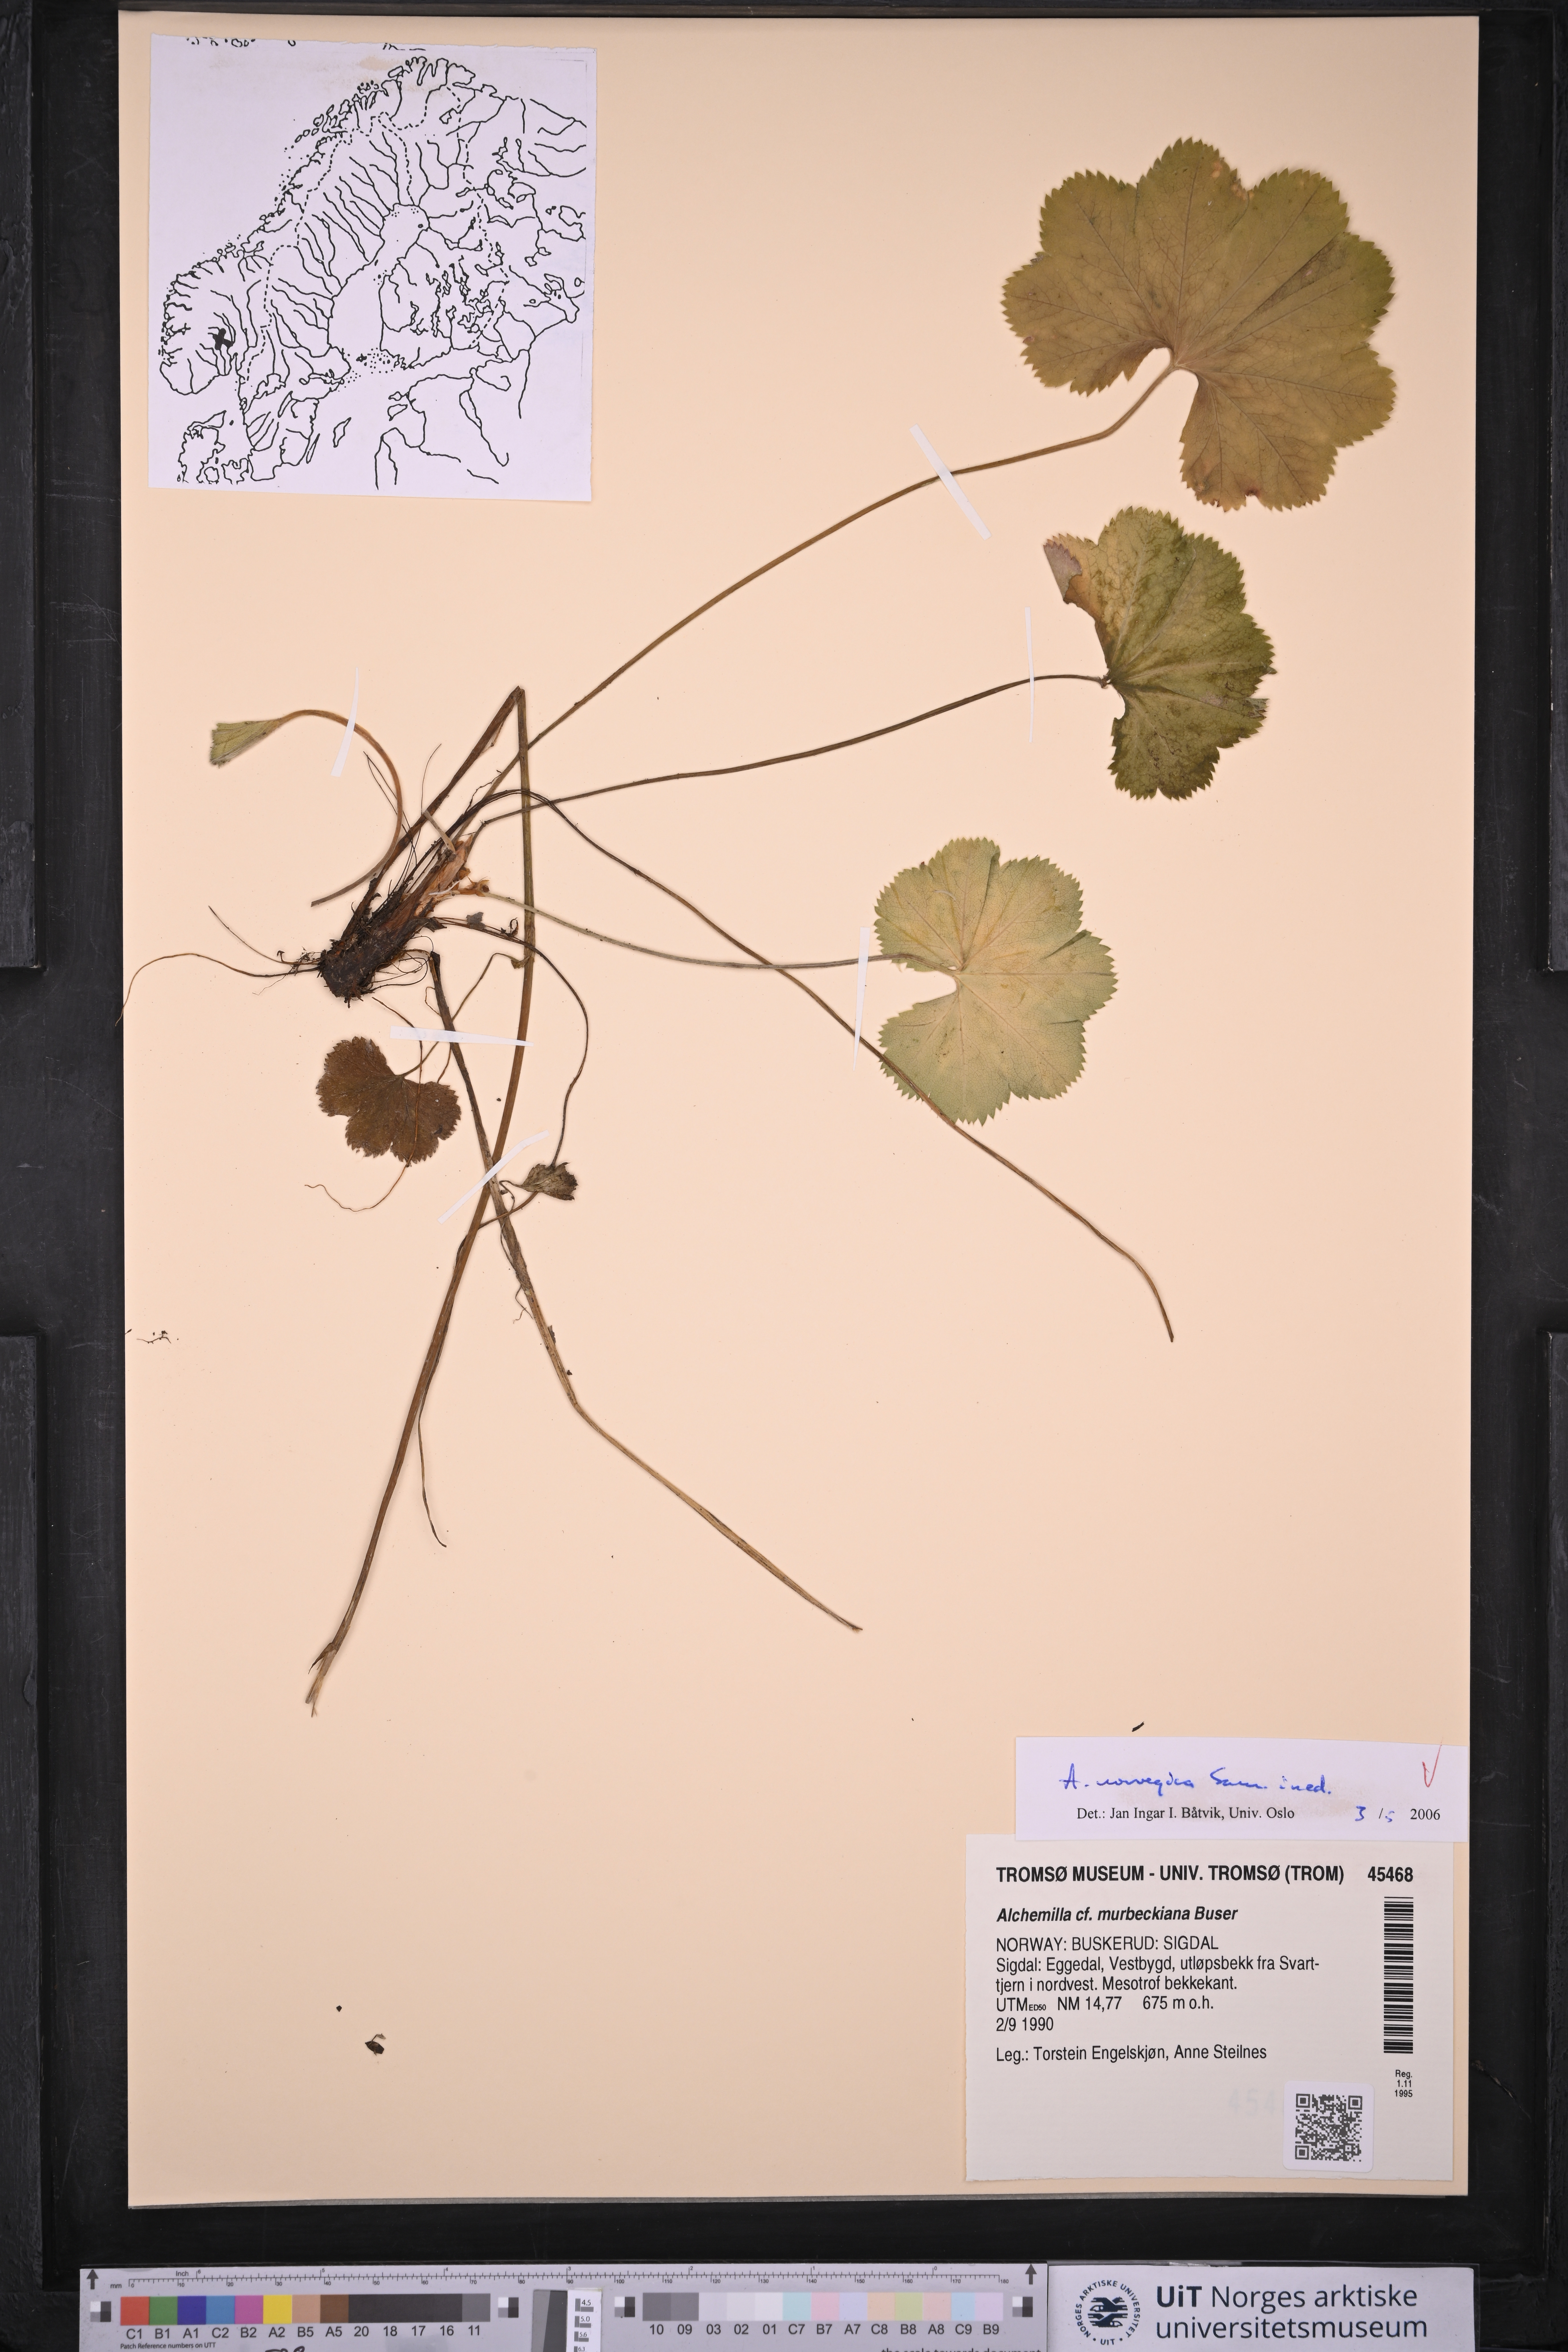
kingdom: Plantae
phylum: Tracheophyta
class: Magnoliopsida
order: Rosales
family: Rosaceae
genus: Alchemilla
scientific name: Alchemilla norvegica
